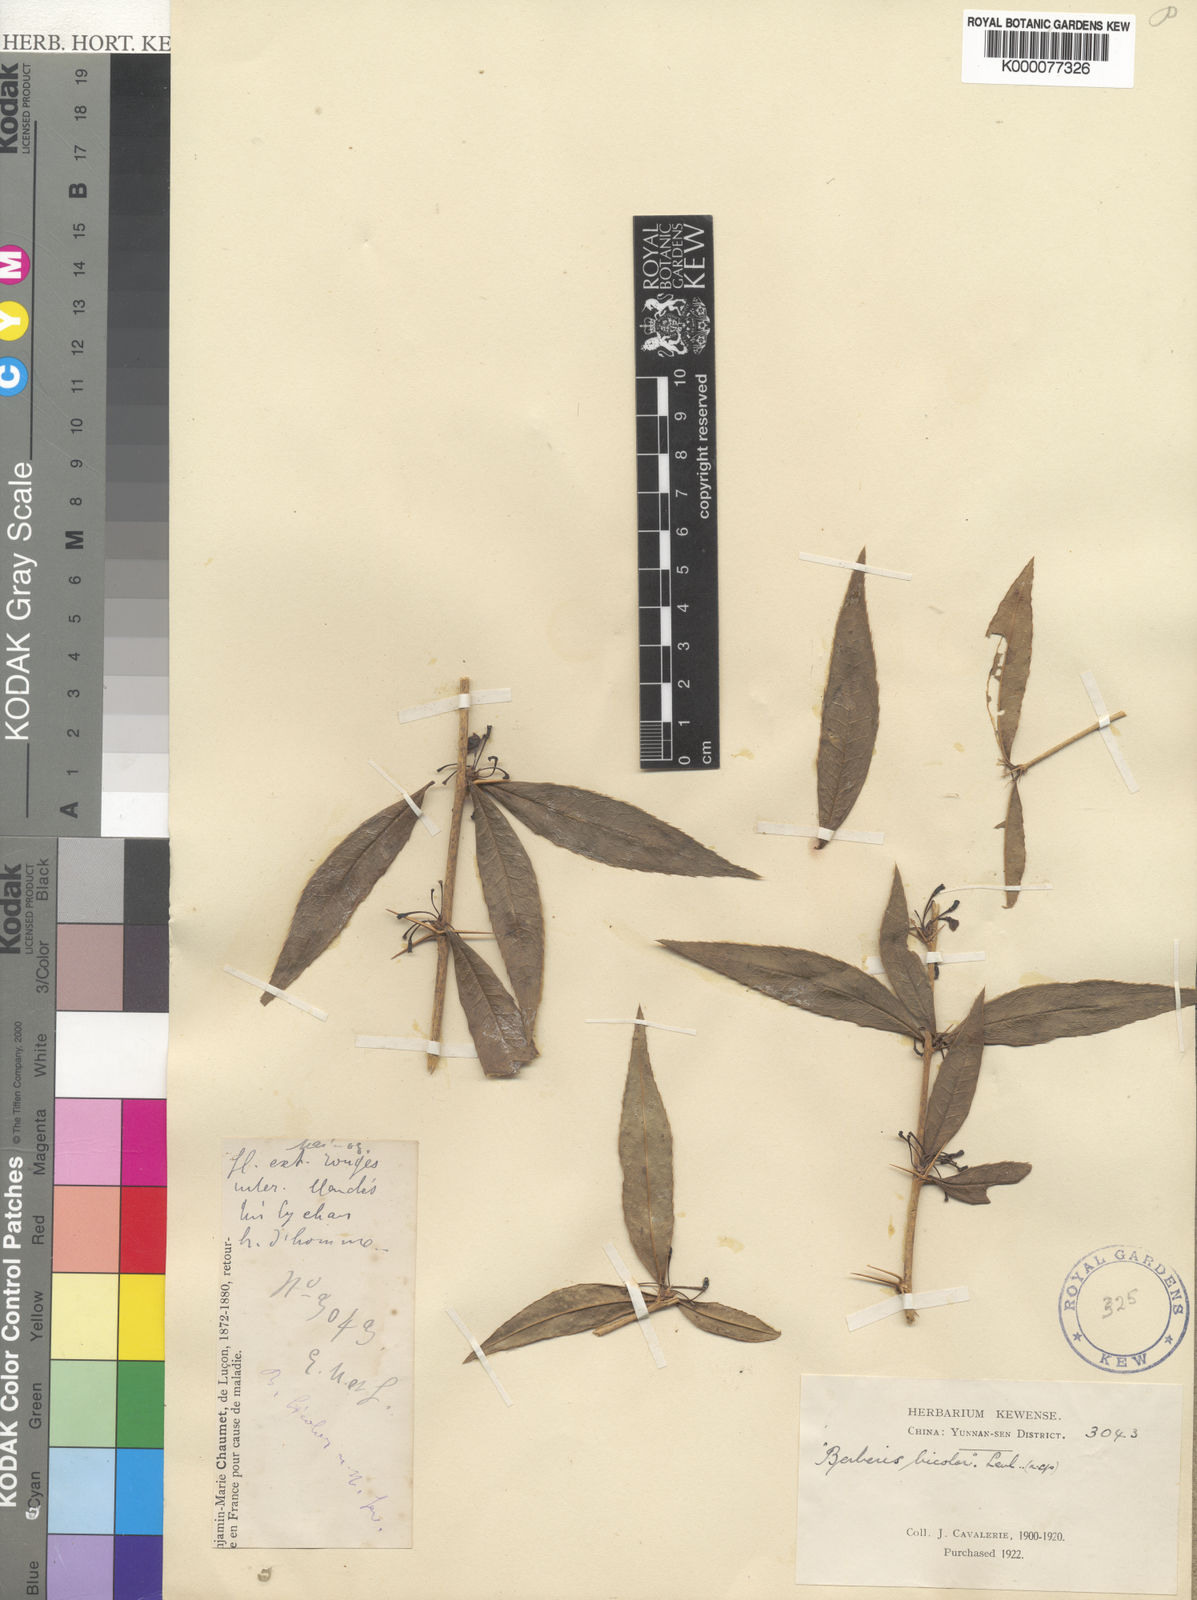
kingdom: Plantae
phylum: Tracheophyta
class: Magnoliopsida
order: Ranunculales
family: Berberidaceae
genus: Berberis
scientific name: Berberis
